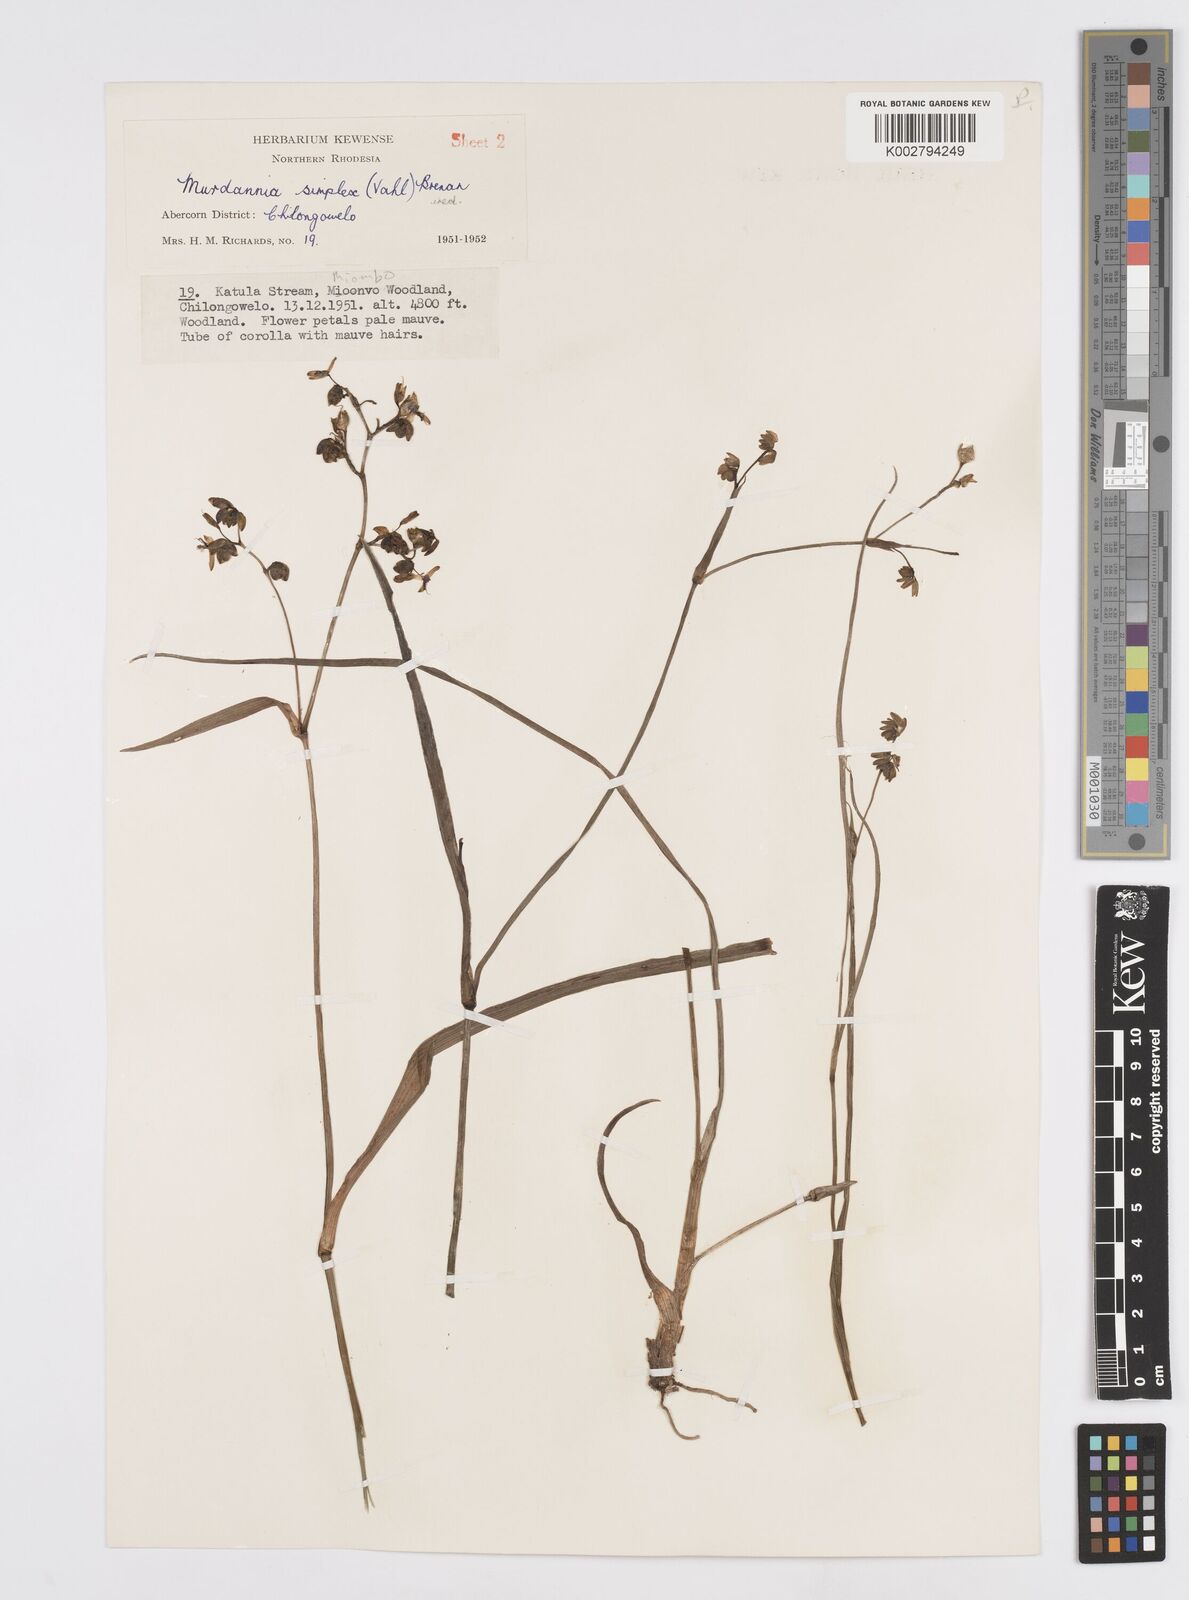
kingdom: Plantae
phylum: Tracheophyta
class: Liliopsida
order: Commelinales
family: Commelinaceae
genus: Murdannia
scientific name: Murdannia simplex
